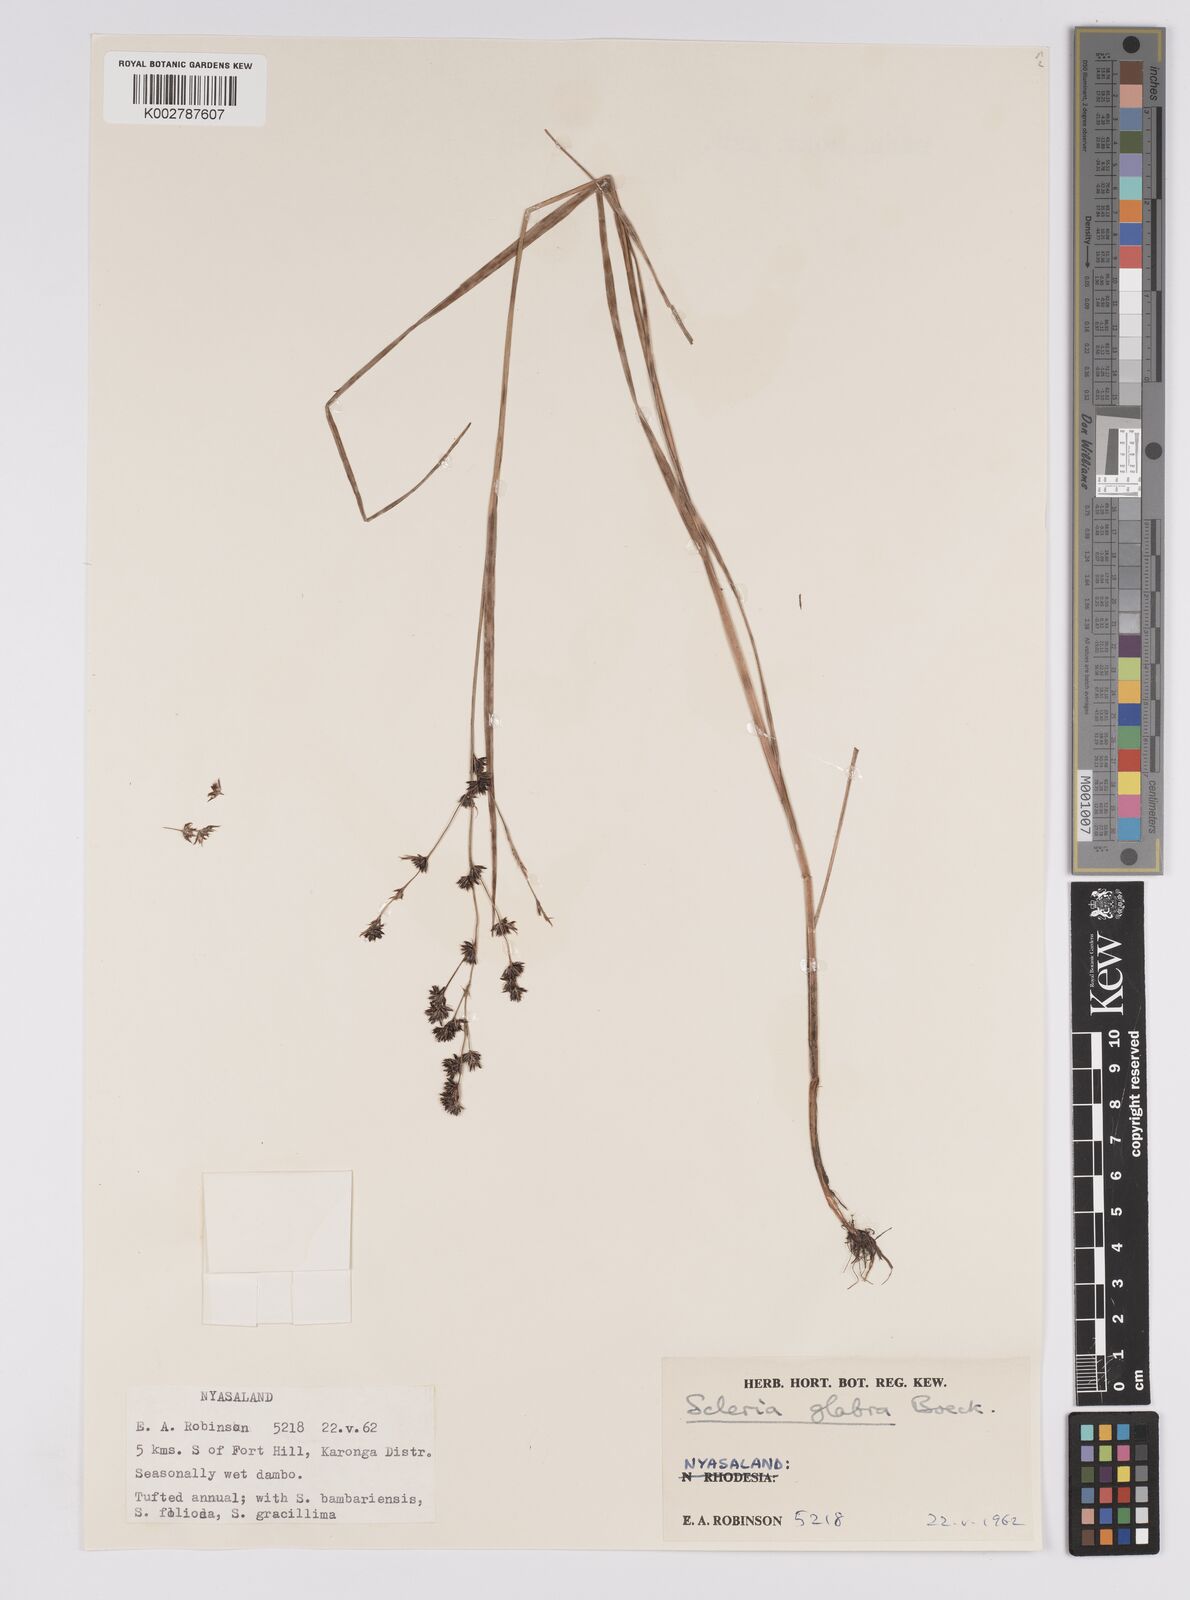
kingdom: Plantae
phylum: Tracheophyta
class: Liliopsida
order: Poales
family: Cyperaceae
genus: Scleria
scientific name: Scleria glabra
